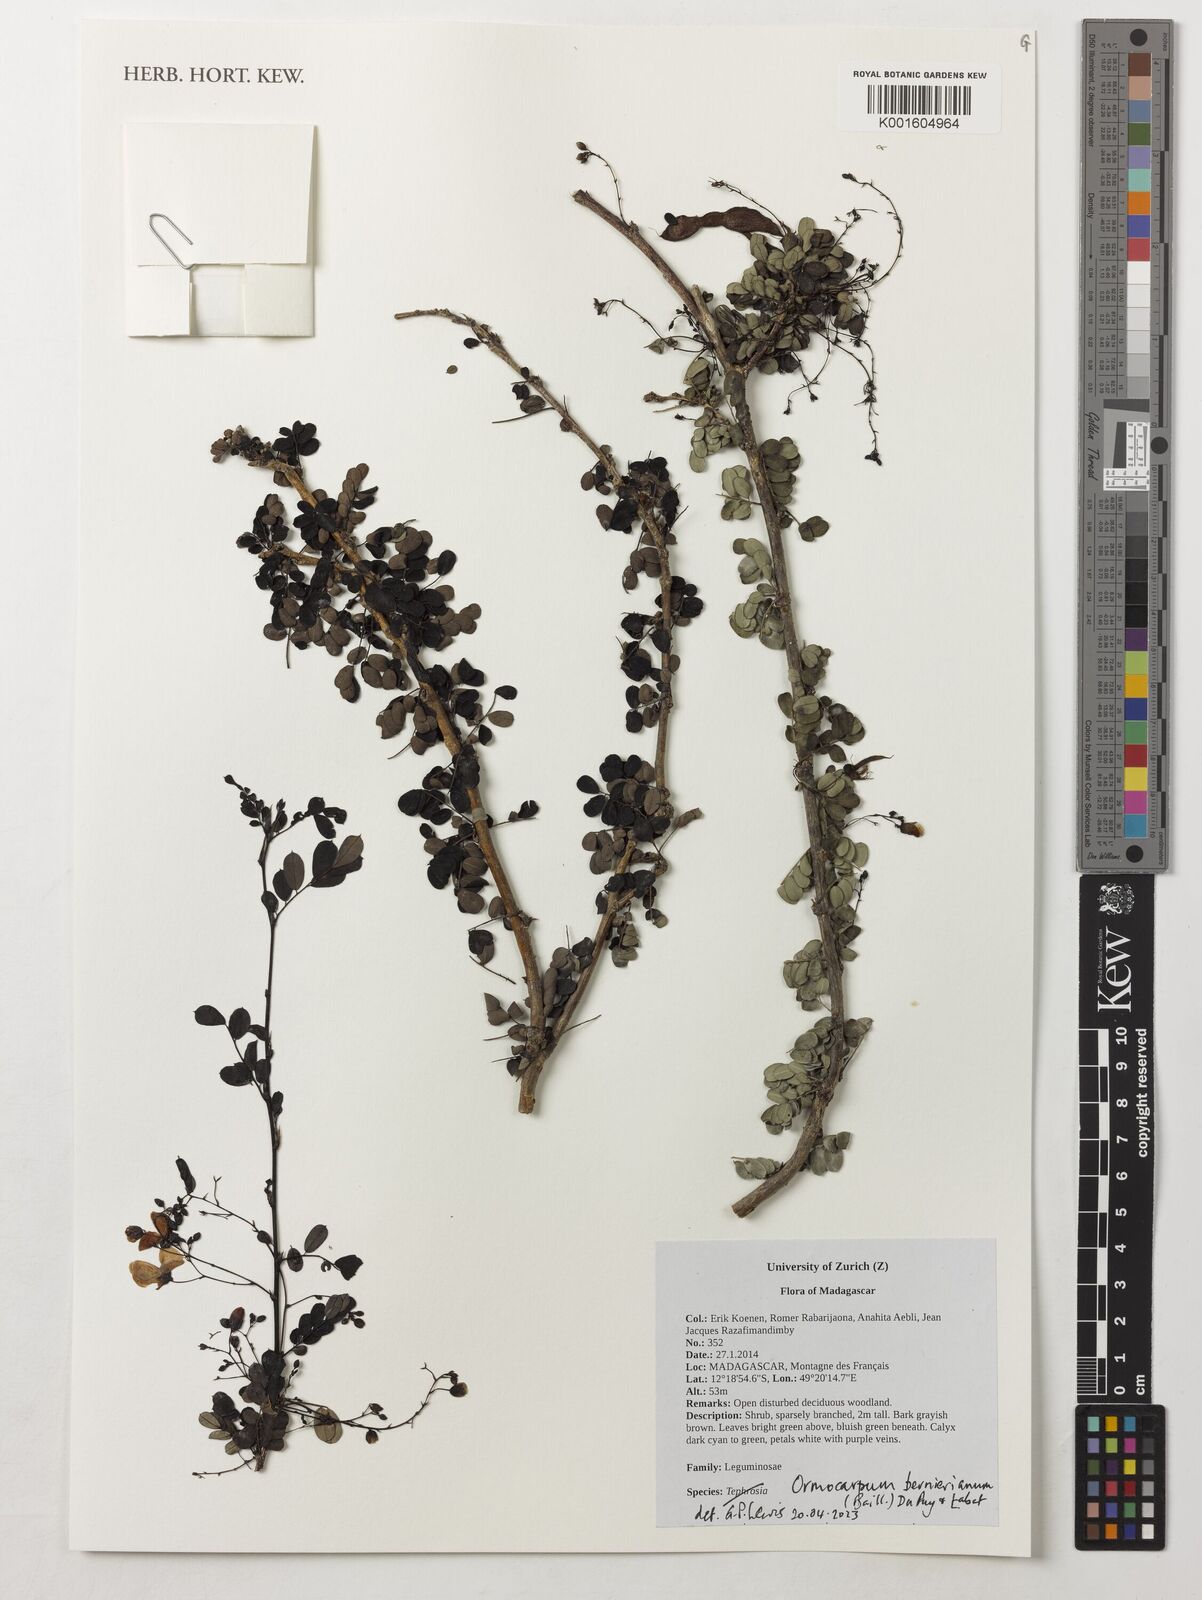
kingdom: Plantae
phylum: Tracheophyta
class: Magnoliopsida
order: Fabales
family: Fabaceae
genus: Ormocarpum
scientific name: Ormocarpum bernierianum
